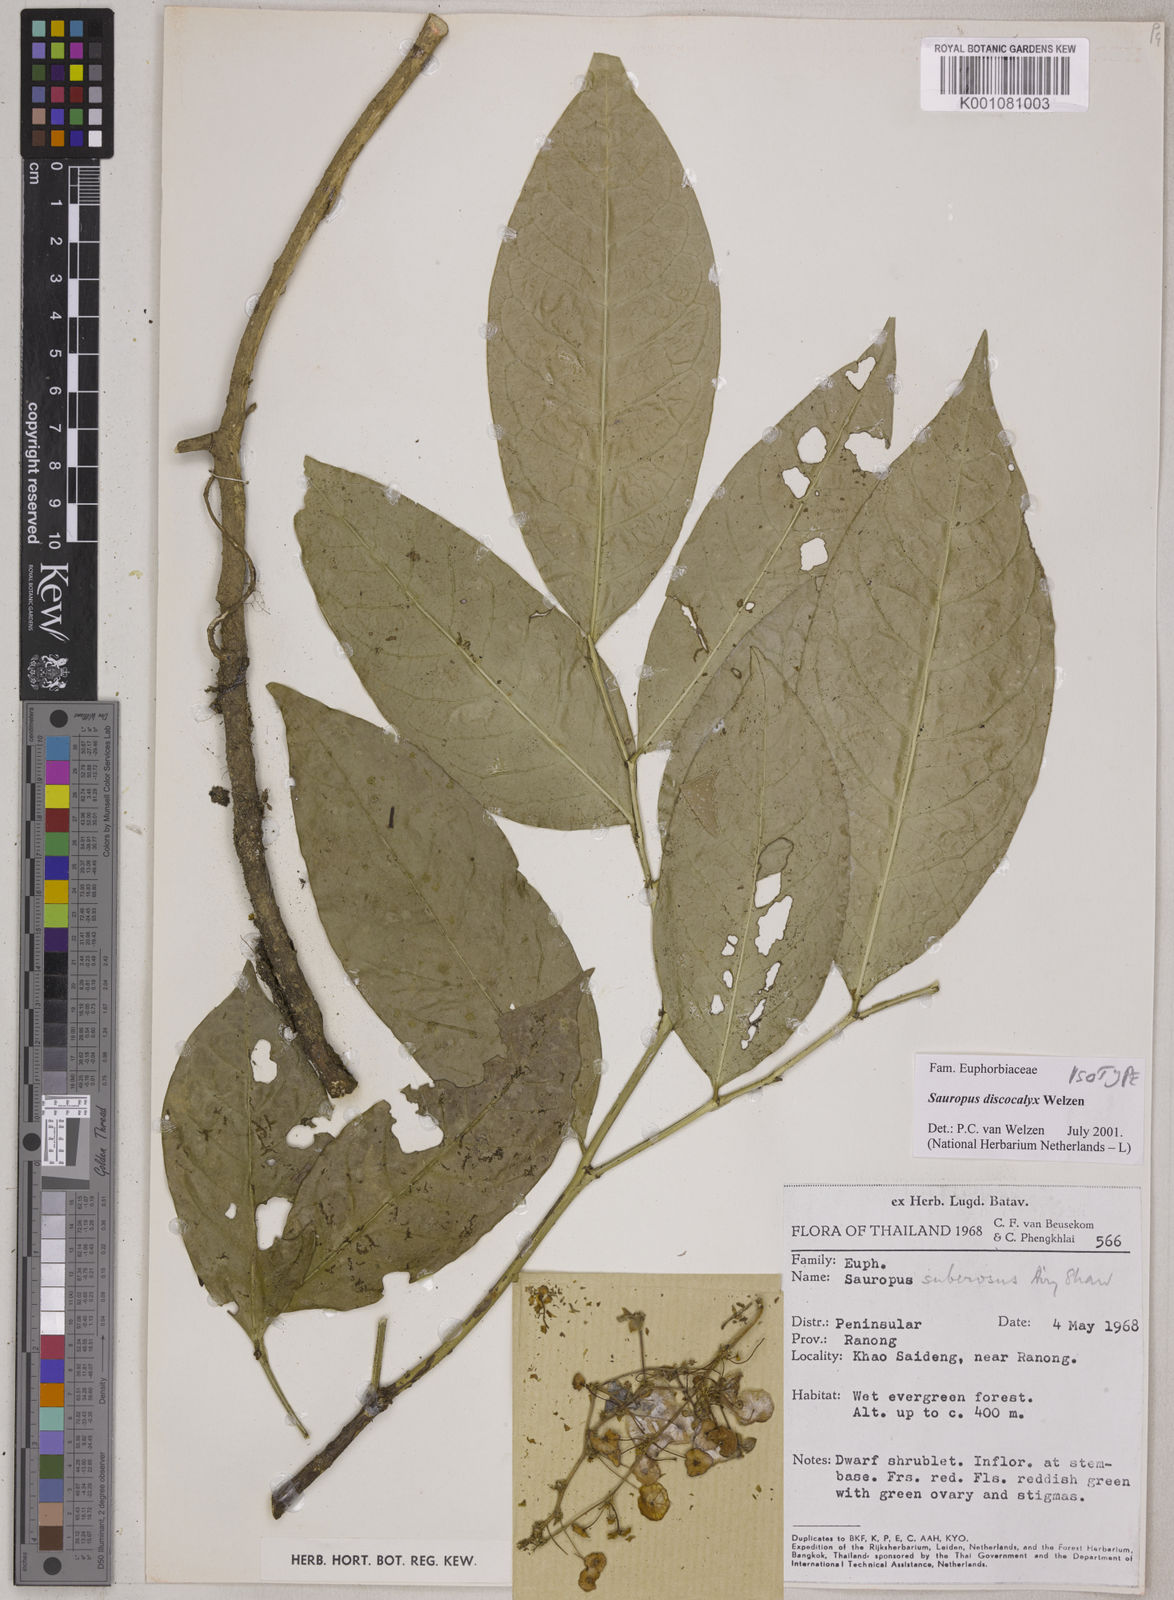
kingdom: Plantae
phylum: Tracheophyta
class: Magnoliopsida
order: Malpighiales
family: Phyllanthaceae
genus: Breynia
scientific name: Breynia discocalyx
